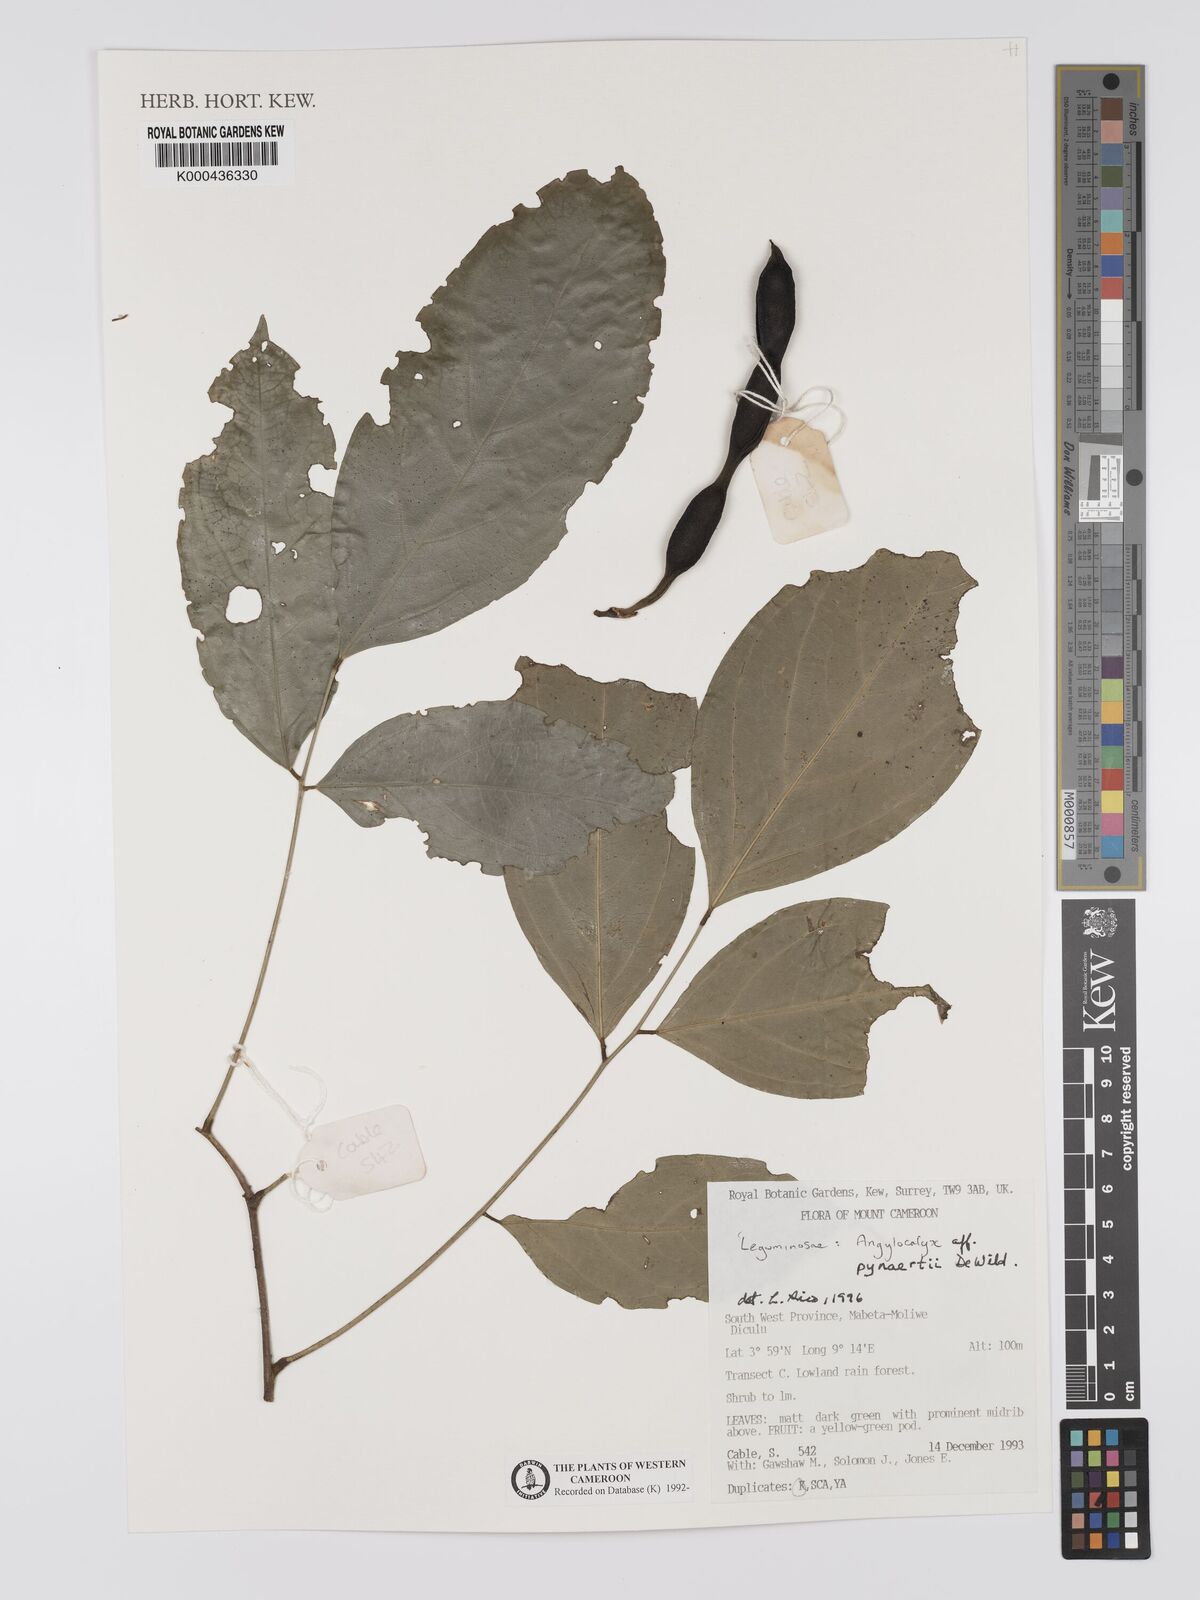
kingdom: Plantae
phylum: Tracheophyta
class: Magnoliopsida
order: Fabales
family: Fabaceae
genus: Angylocalyx
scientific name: Angylocalyx pynaertii
